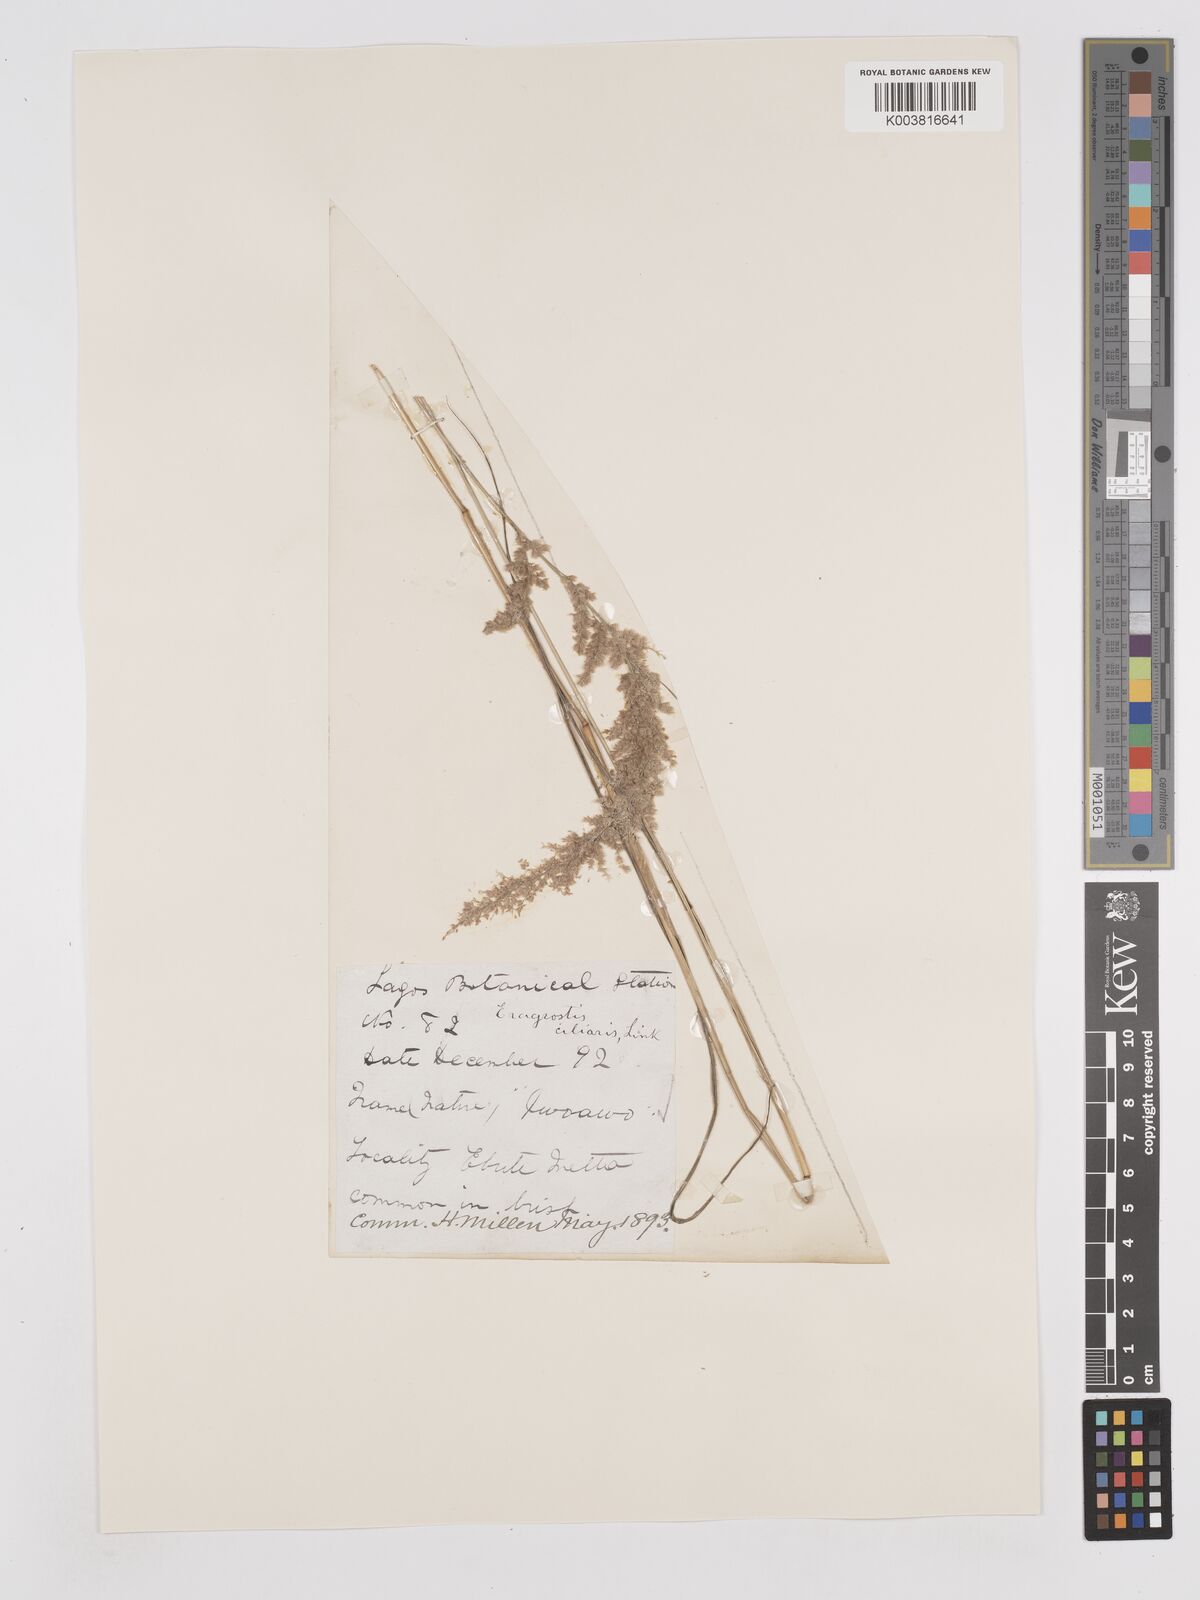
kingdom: Plantae
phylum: Tracheophyta
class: Liliopsida
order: Poales
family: Poaceae
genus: Eragrostis
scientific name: Eragrostis ciliaris
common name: Gophertail lovegrass
